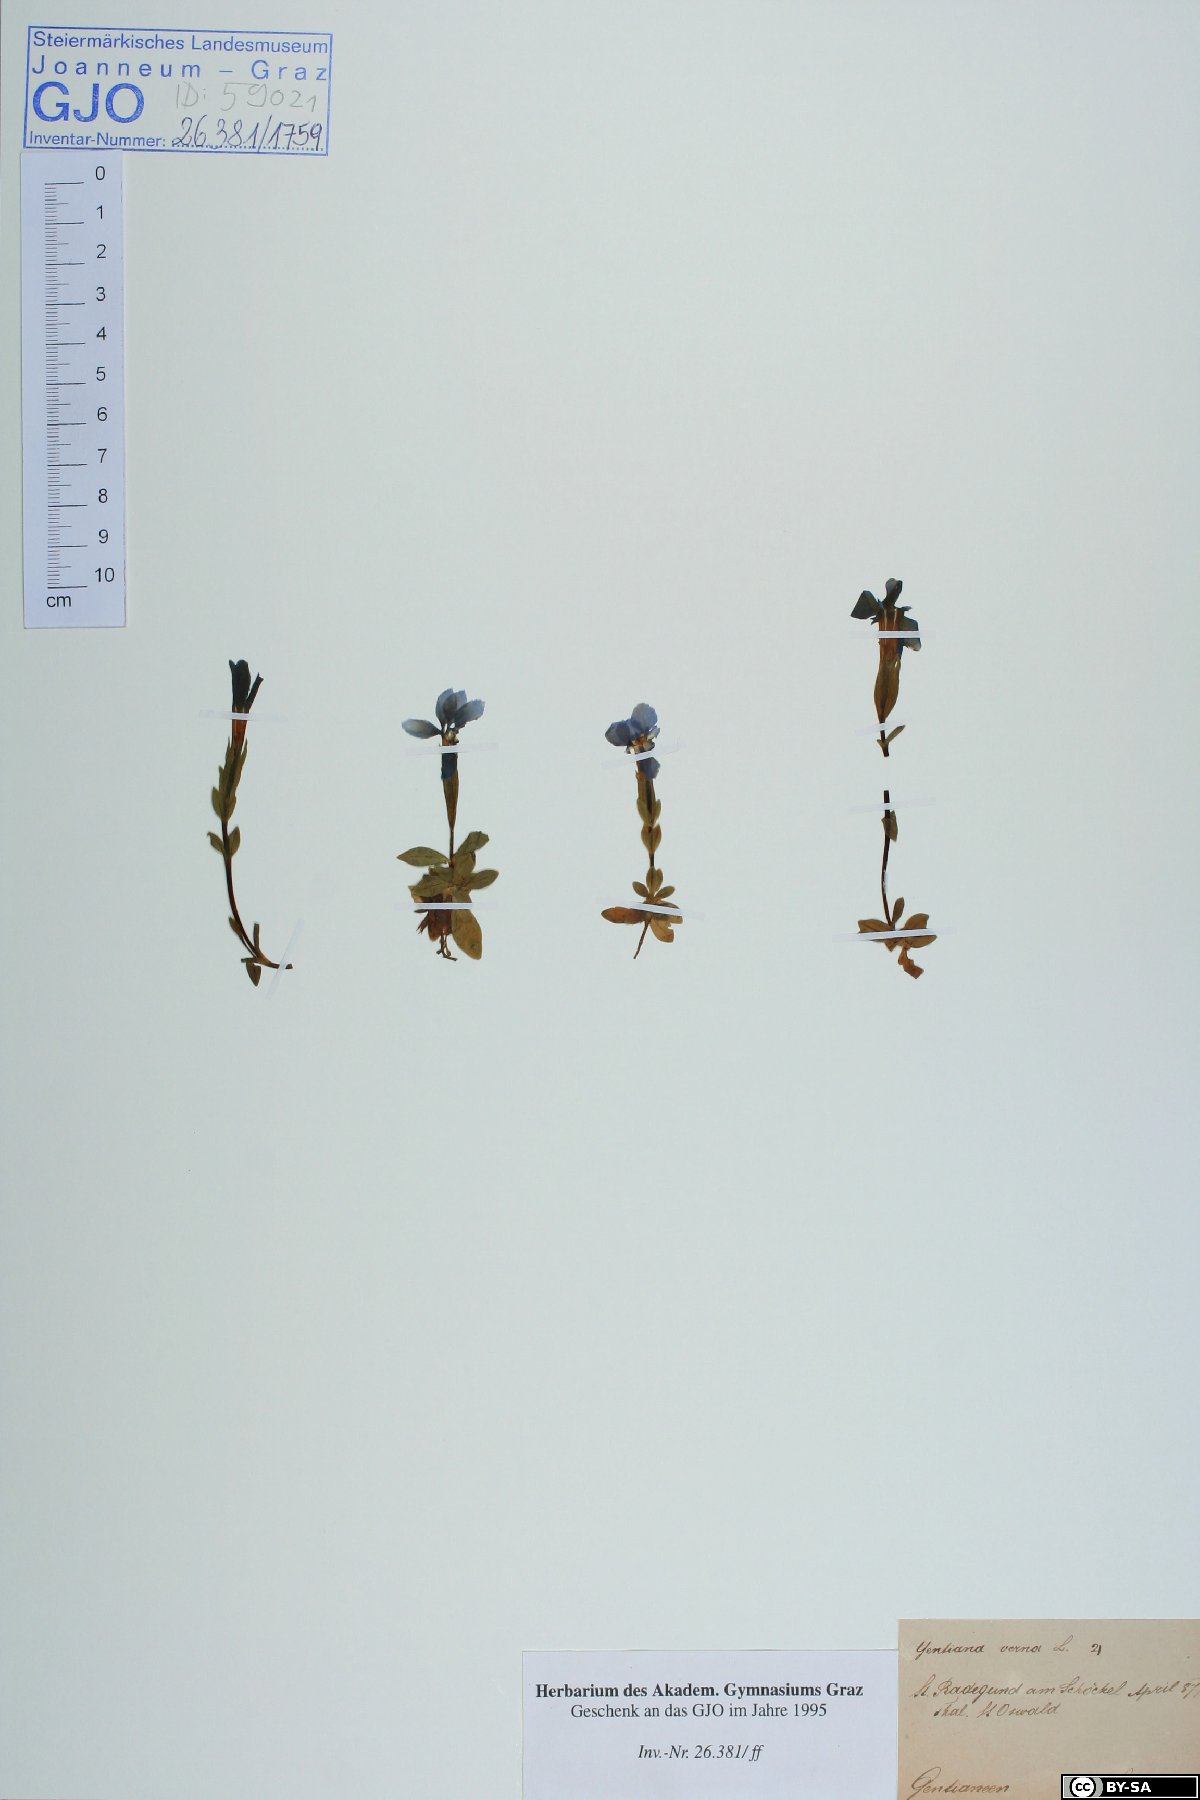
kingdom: Plantae
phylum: Tracheophyta
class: Magnoliopsida
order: Gentianales
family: Gentianaceae
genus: Gentiana
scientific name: Gentiana verna
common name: Spring gentian
